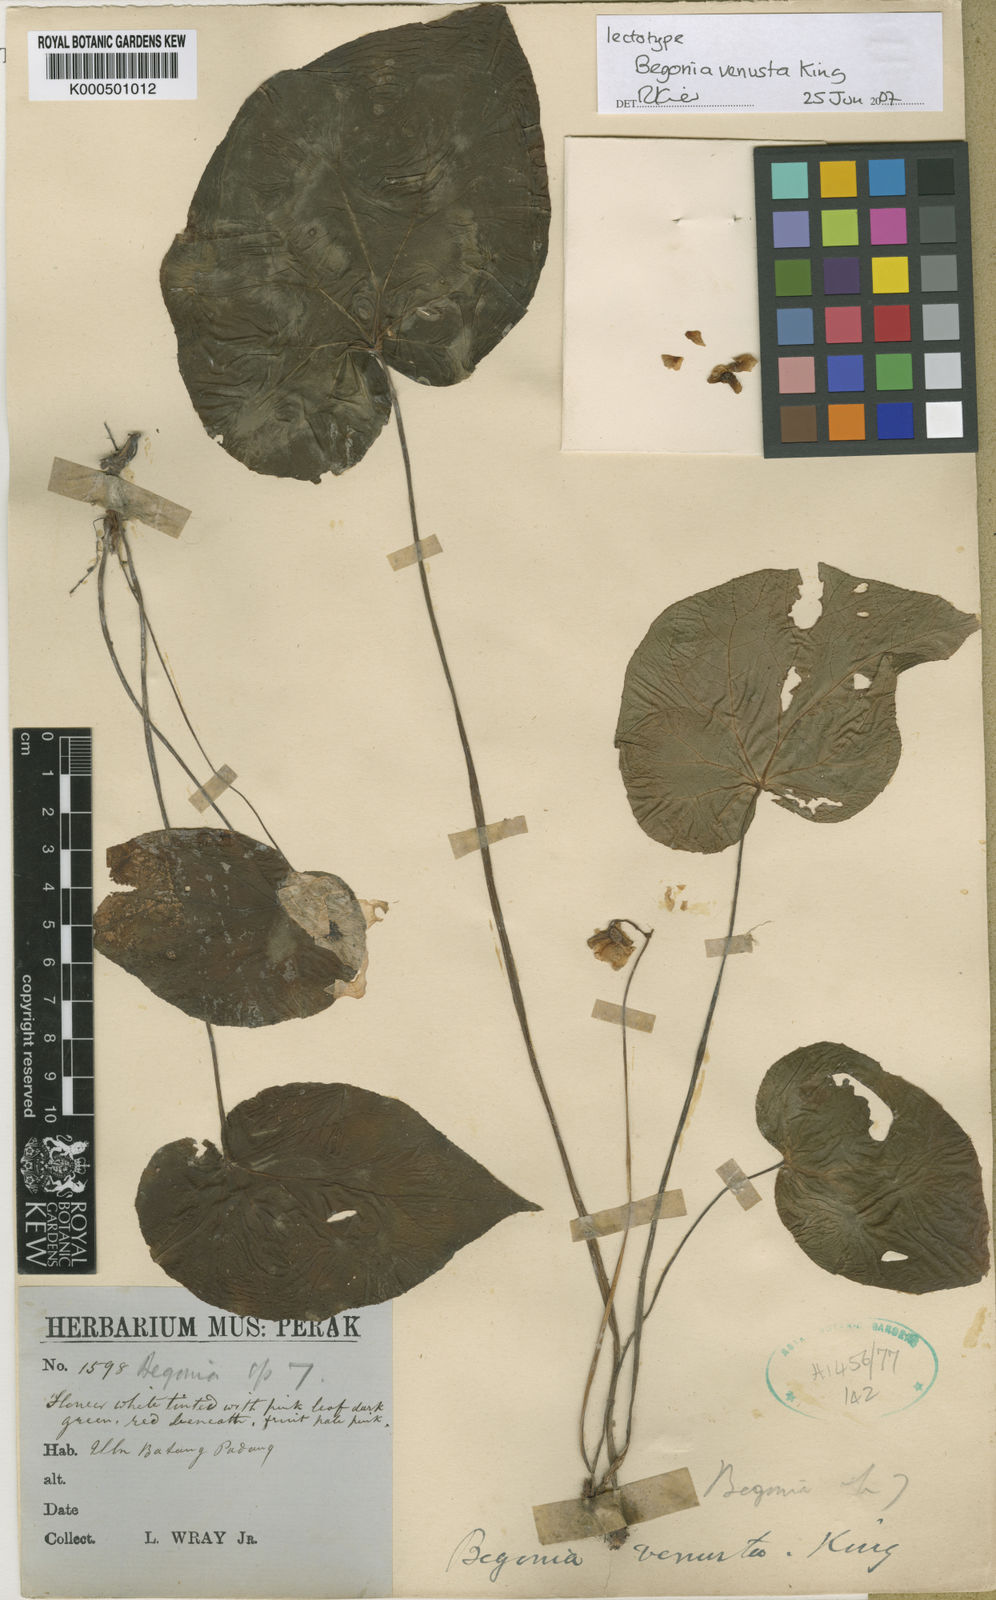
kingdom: Plantae
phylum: Tracheophyta
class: Magnoliopsida
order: Cucurbitales
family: Begoniaceae
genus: Begonia
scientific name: Begonia venusta
